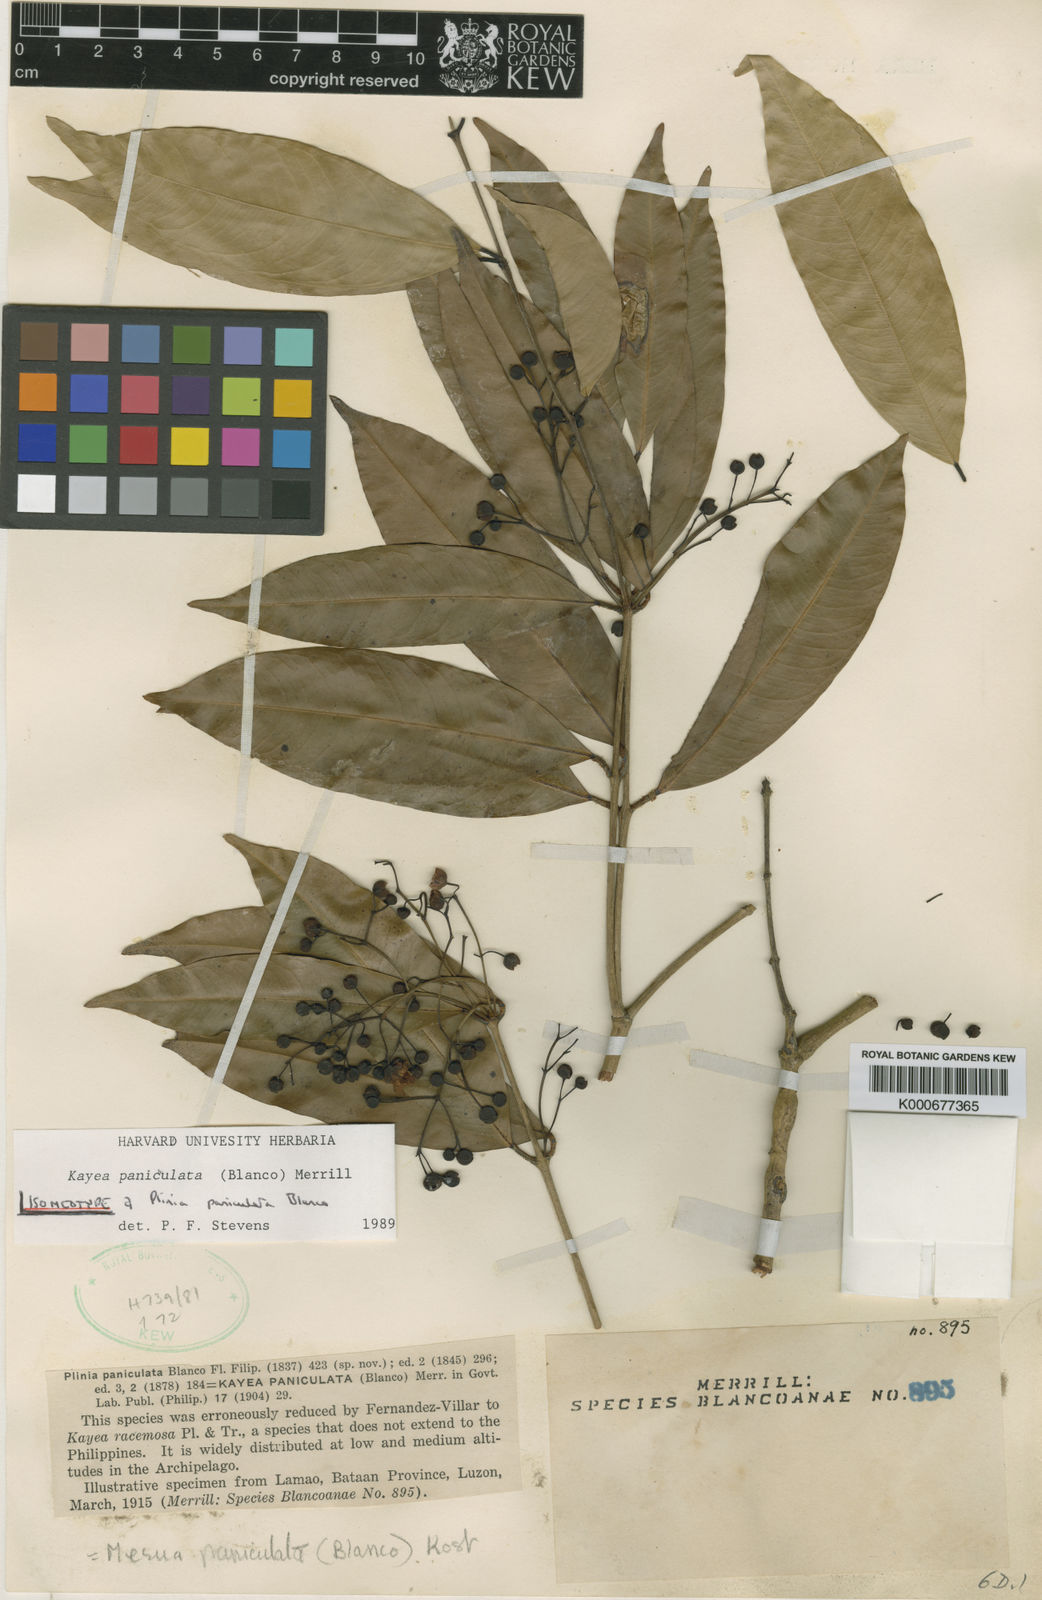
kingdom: Plantae
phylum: Tracheophyta
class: Magnoliopsida
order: Malpighiales
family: Calophyllaceae
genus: Kayea
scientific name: Kayea paniculata
